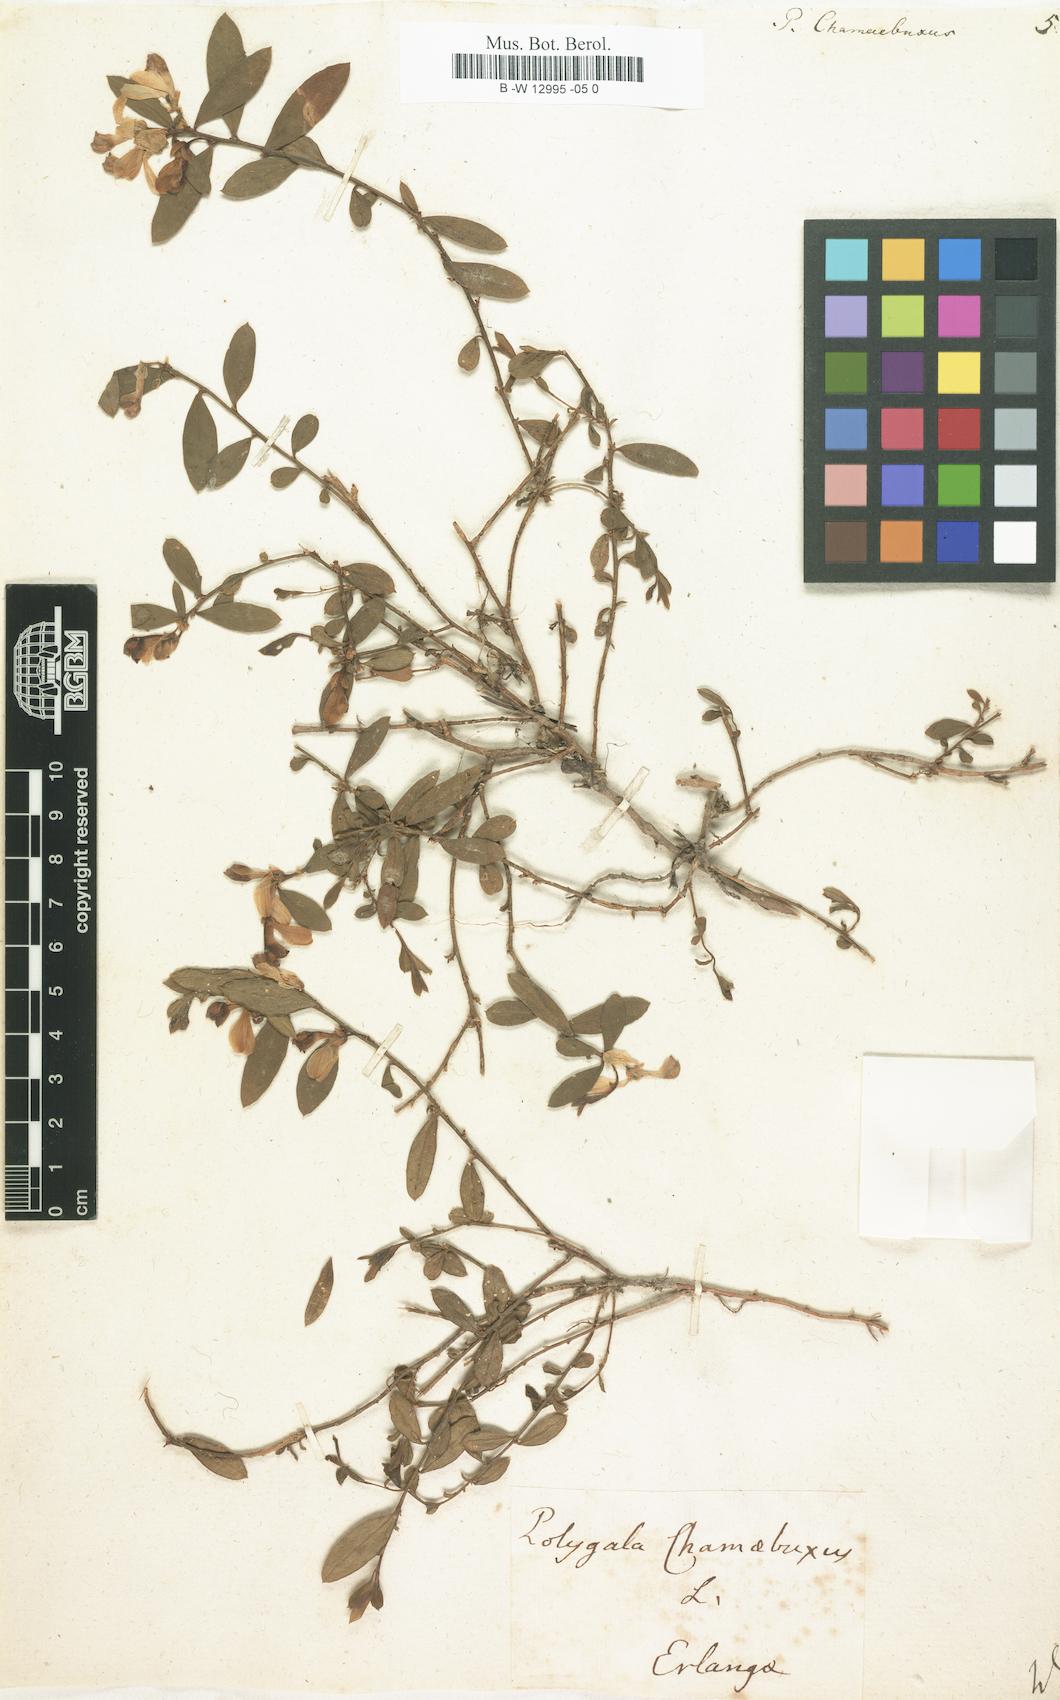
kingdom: Plantae
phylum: Tracheophyta
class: Magnoliopsida
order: Fabales
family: Polygalaceae
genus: Polygaloides
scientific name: Polygaloides chamaebuxus
